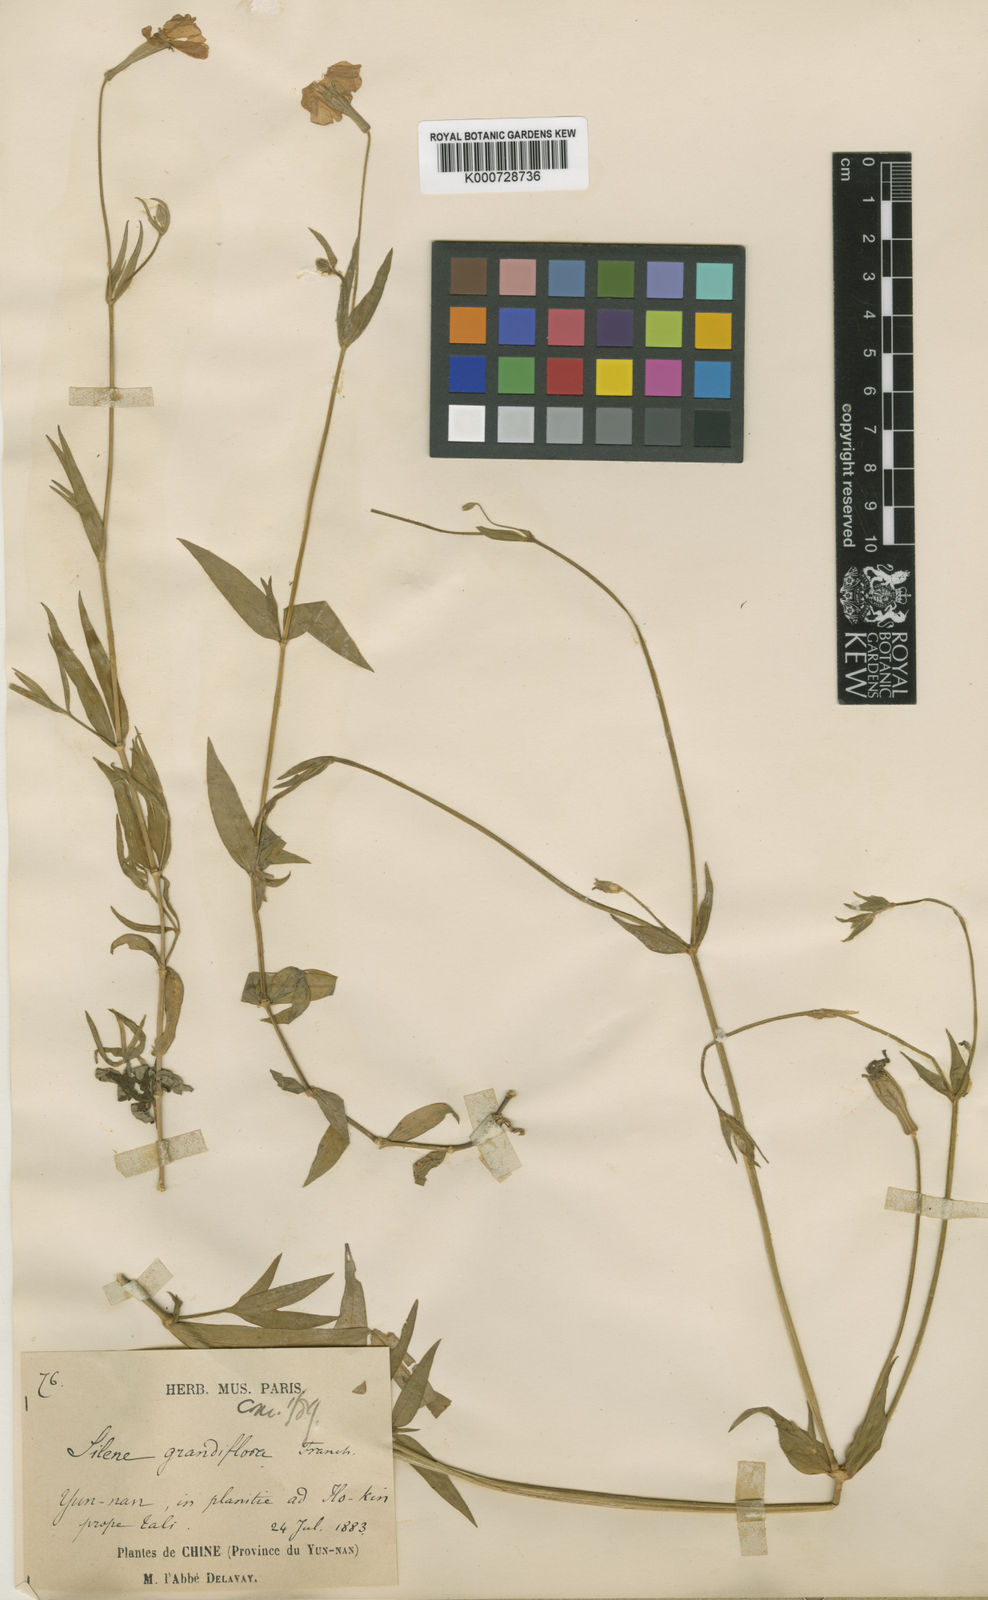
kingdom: Plantae
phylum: Tracheophyta
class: Magnoliopsida
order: Caryophyllales
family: Caryophyllaceae
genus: Silene
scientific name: Silene grandiflora
